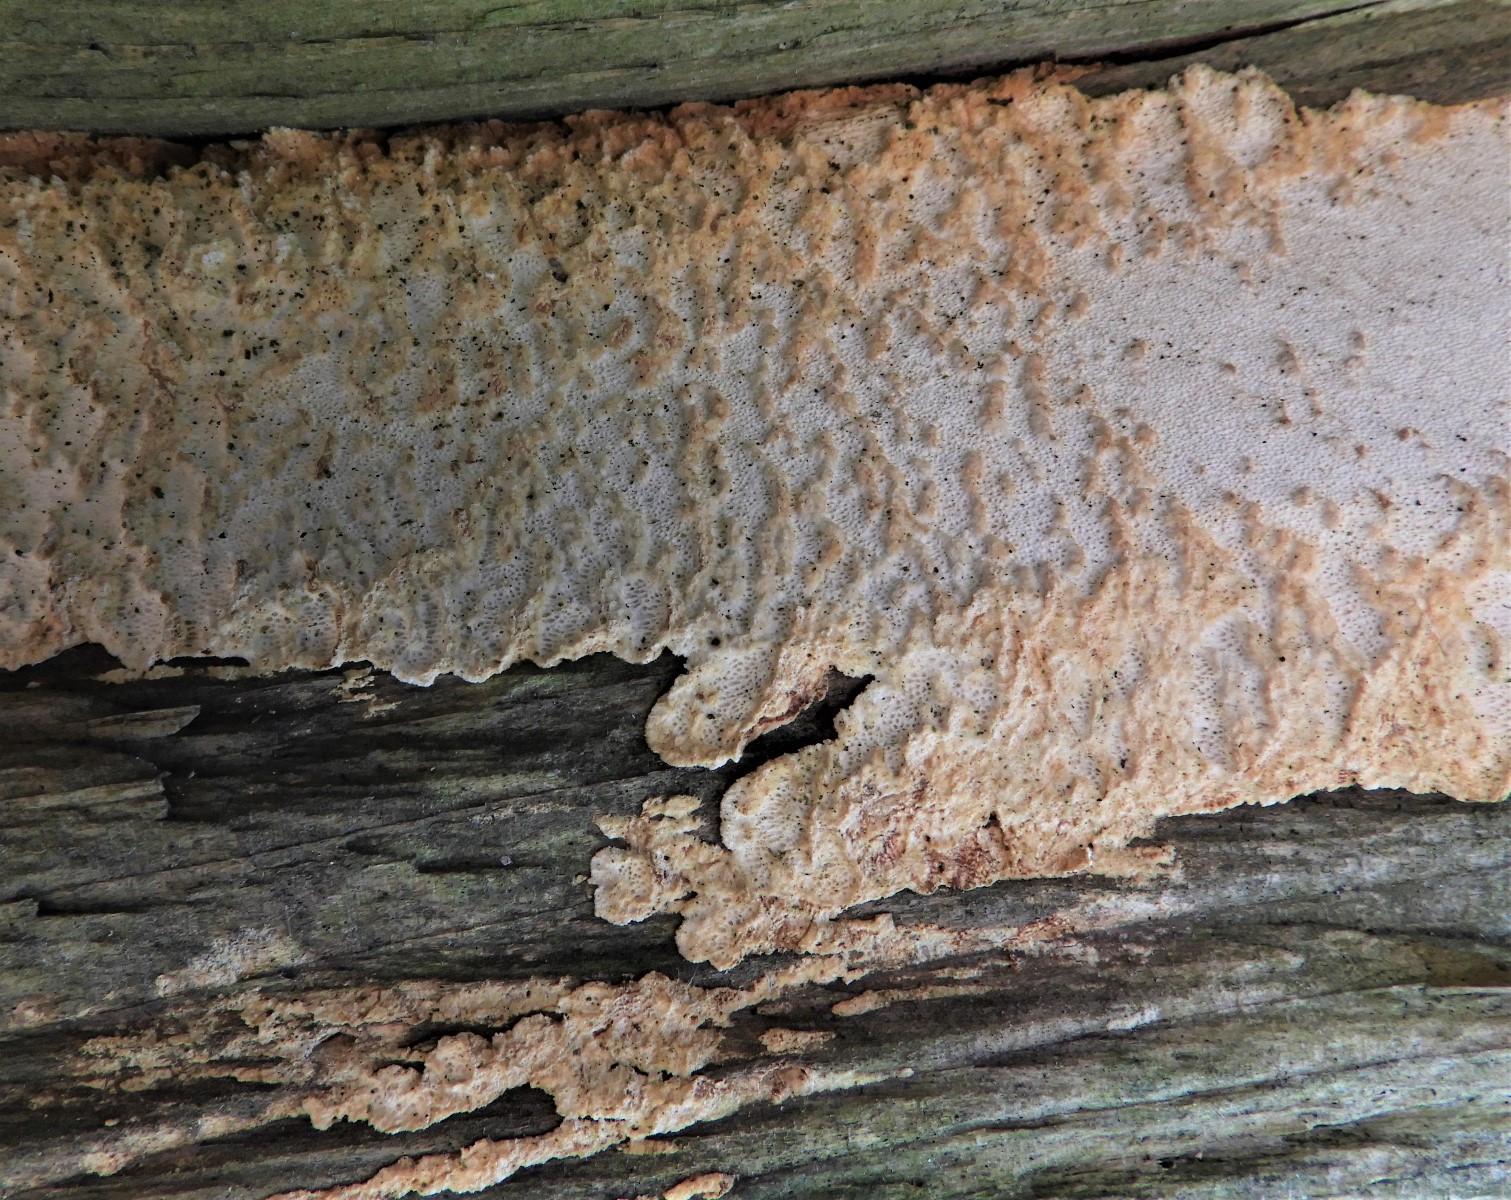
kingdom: Fungi
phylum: Basidiomycota
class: Agaricomycetes
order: Polyporales
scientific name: Polyporales
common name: poresvampordenen
